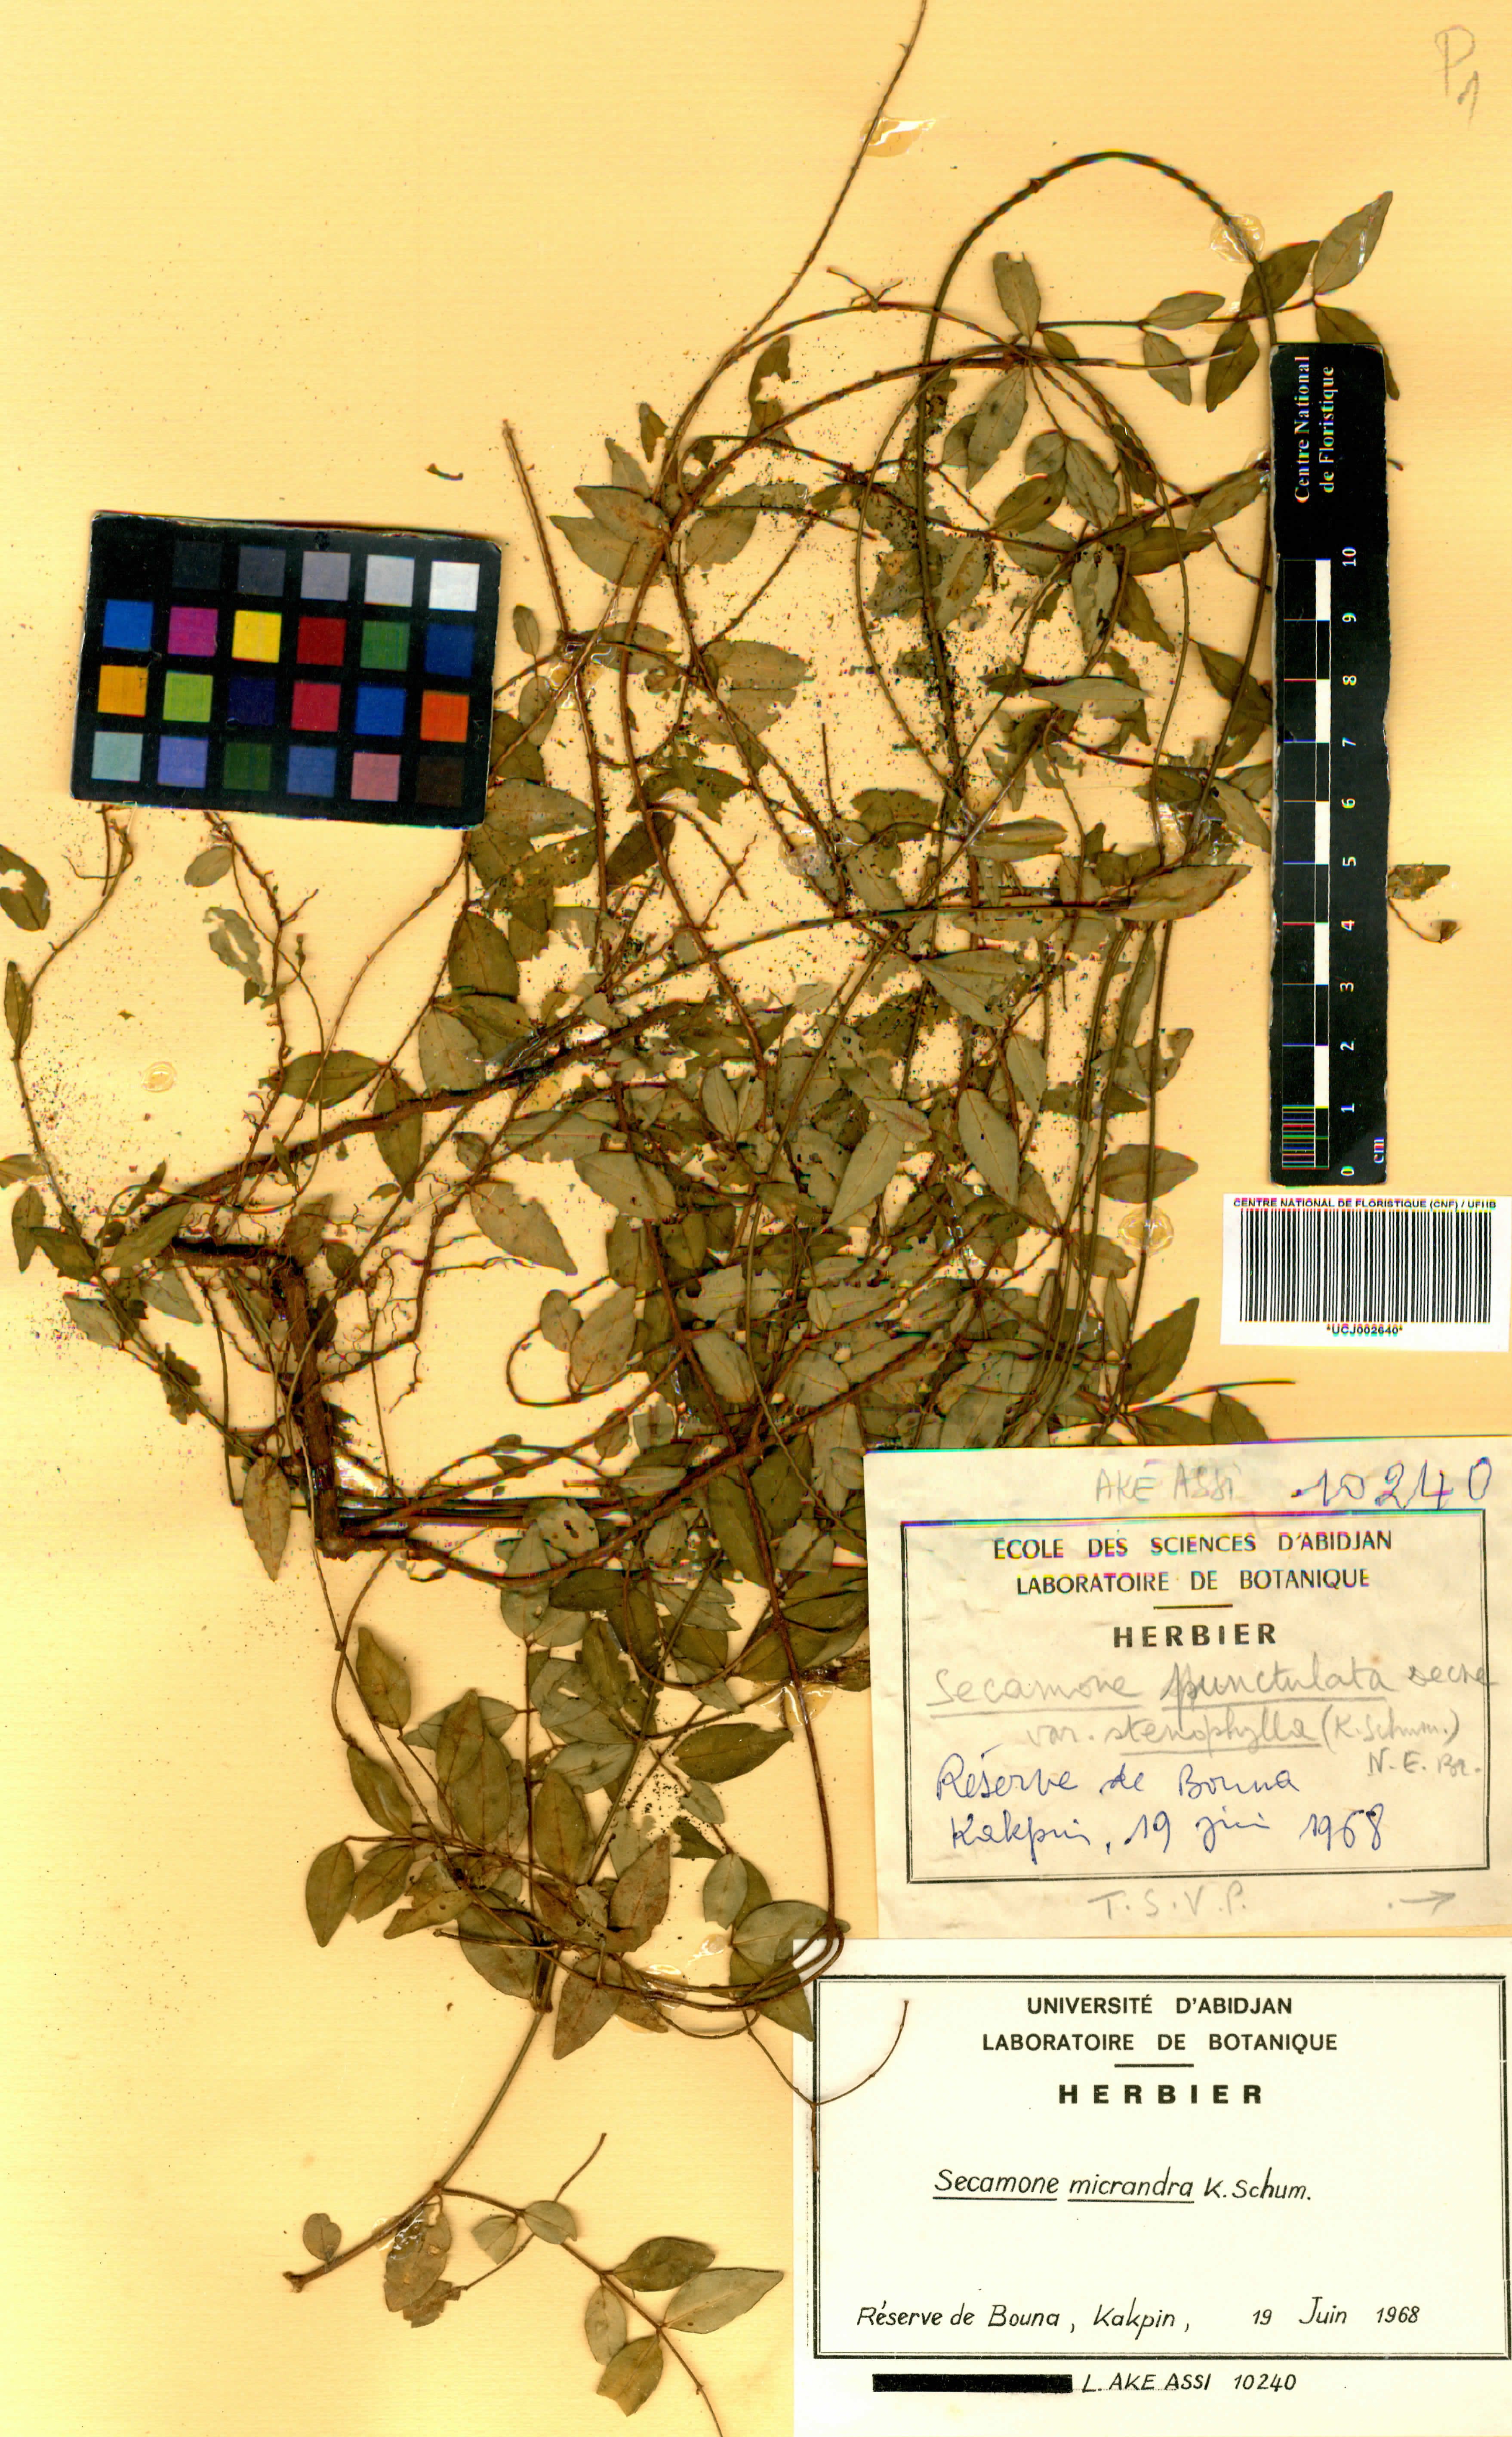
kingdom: Plantae
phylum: Tracheophyta
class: Magnoliopsida
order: Gentianales
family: Apocynaceae
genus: Secamone
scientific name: Secamone punctulata
